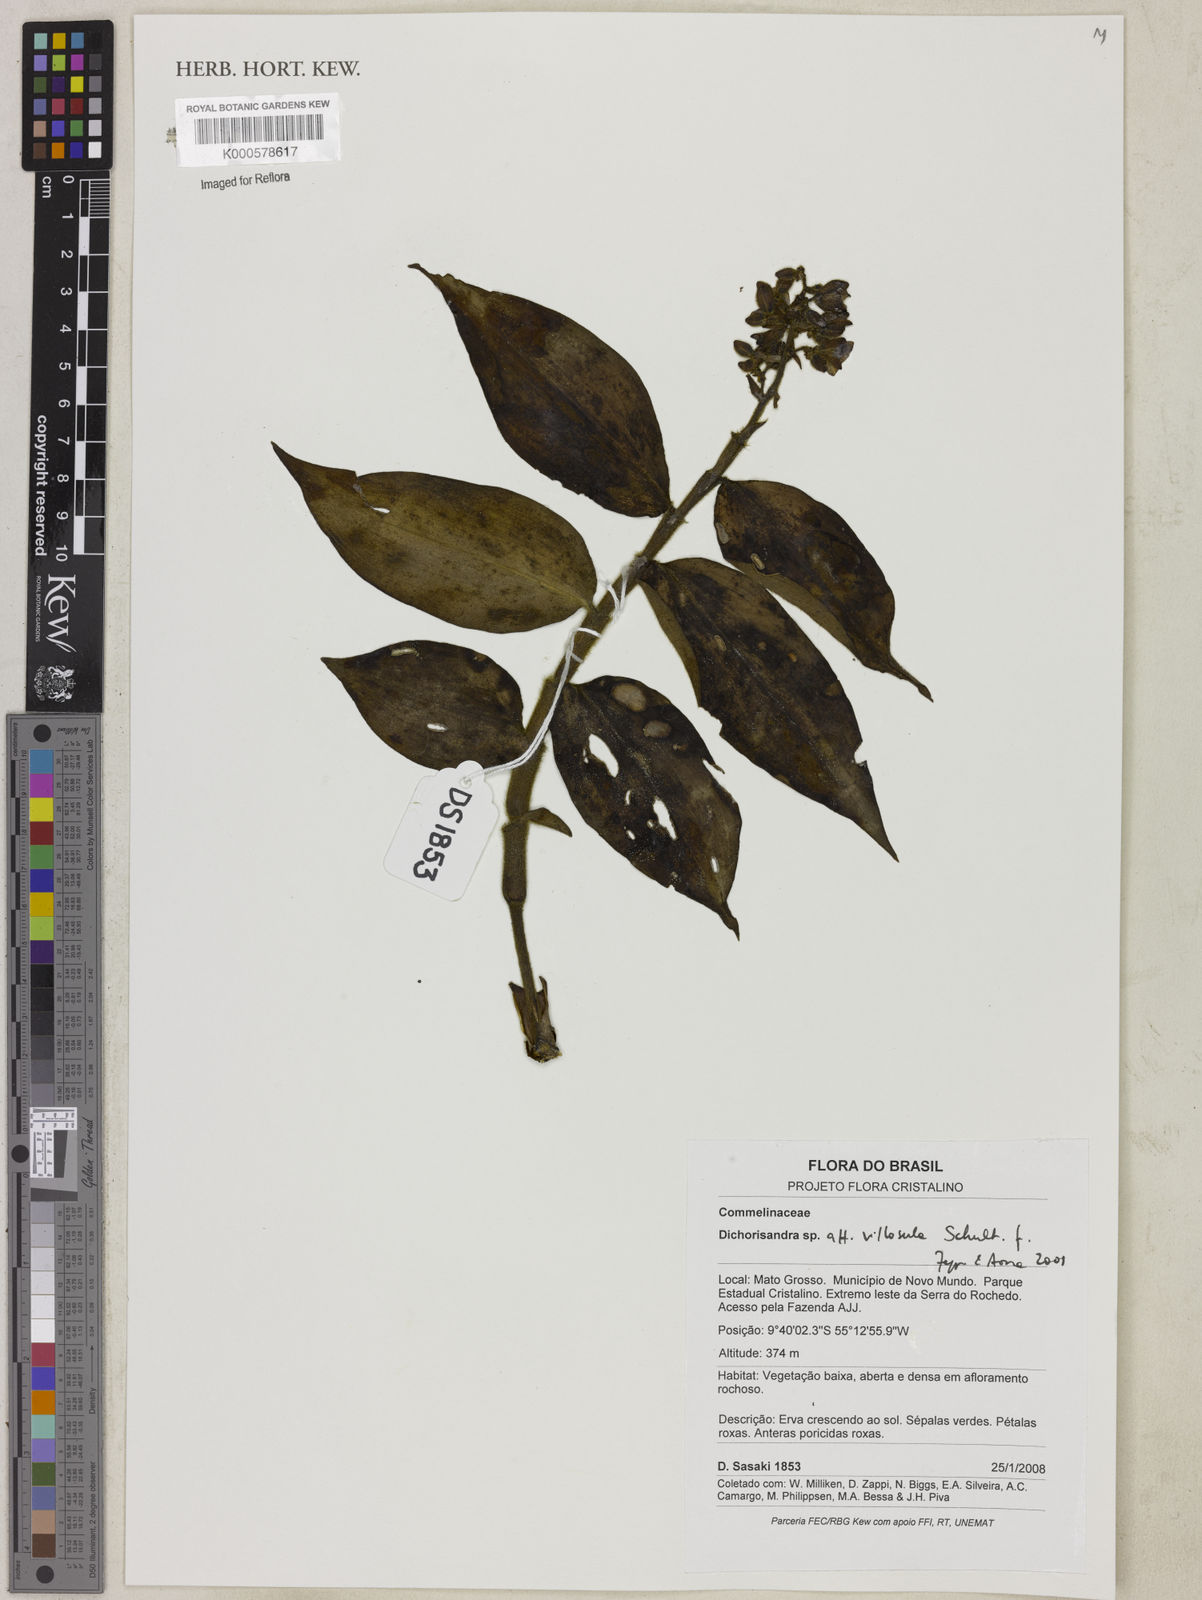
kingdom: Plantae
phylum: Tracheophyta
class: Liliopsida
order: Commelinales
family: Commelinaceae
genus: Dichorisandra
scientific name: Dichorisandra
